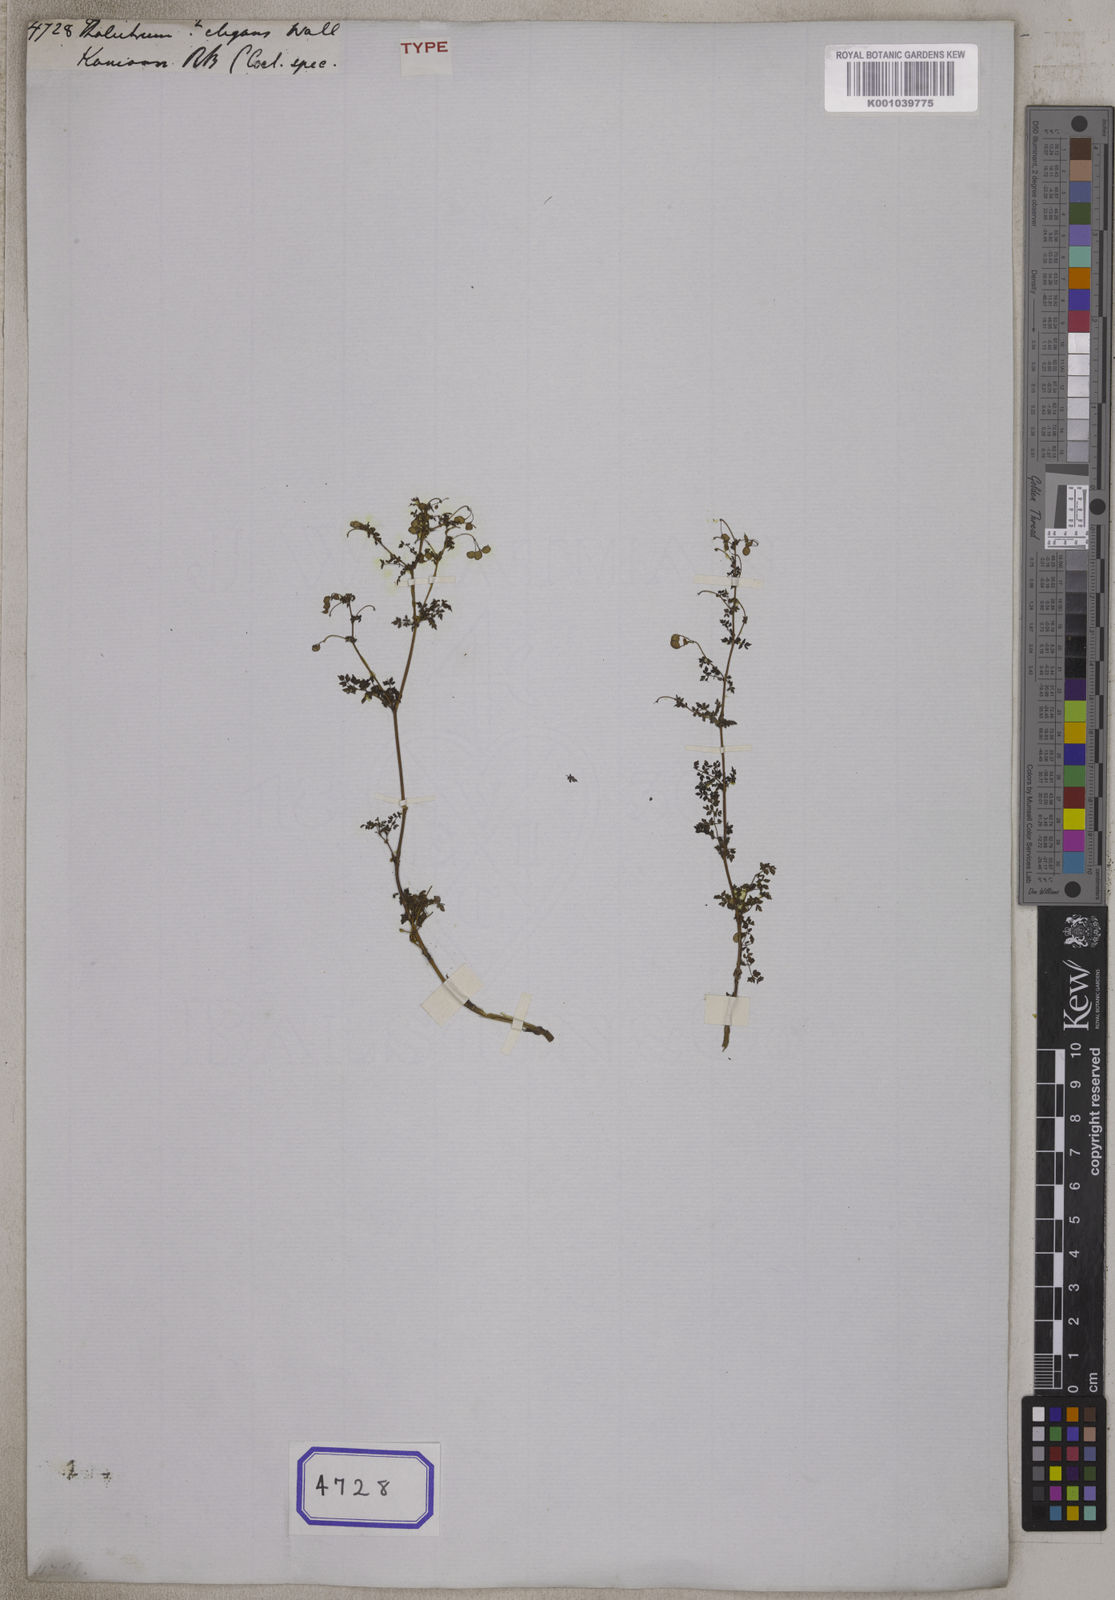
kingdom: Plantae
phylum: Tracheophyta
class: Magnoliopsida
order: Ranunculales
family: Ranunculaceae
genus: Thalictrum
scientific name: Thalictrum
